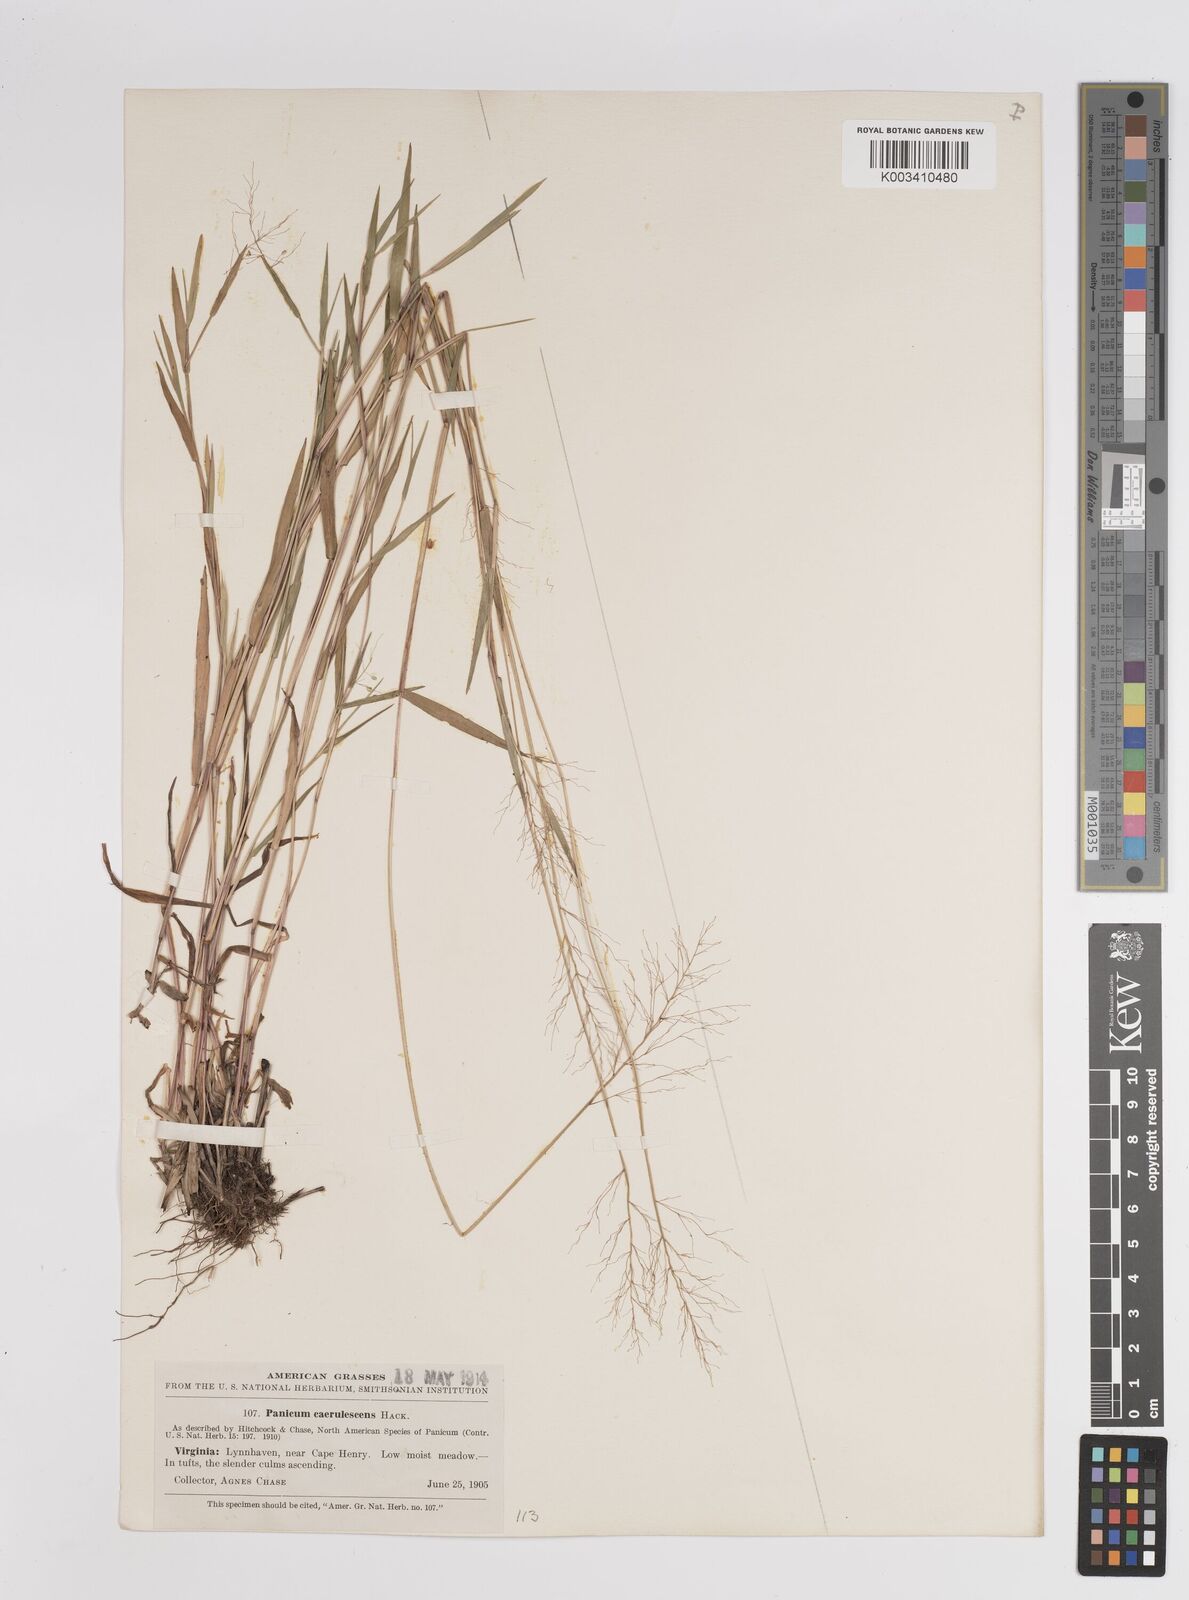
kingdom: Plantae
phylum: Tracheophyta
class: Liliopsida
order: Poales
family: Poaceae
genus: Dichanthelium
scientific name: Dichanthelium dichotomum
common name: Cypress panicgrass
